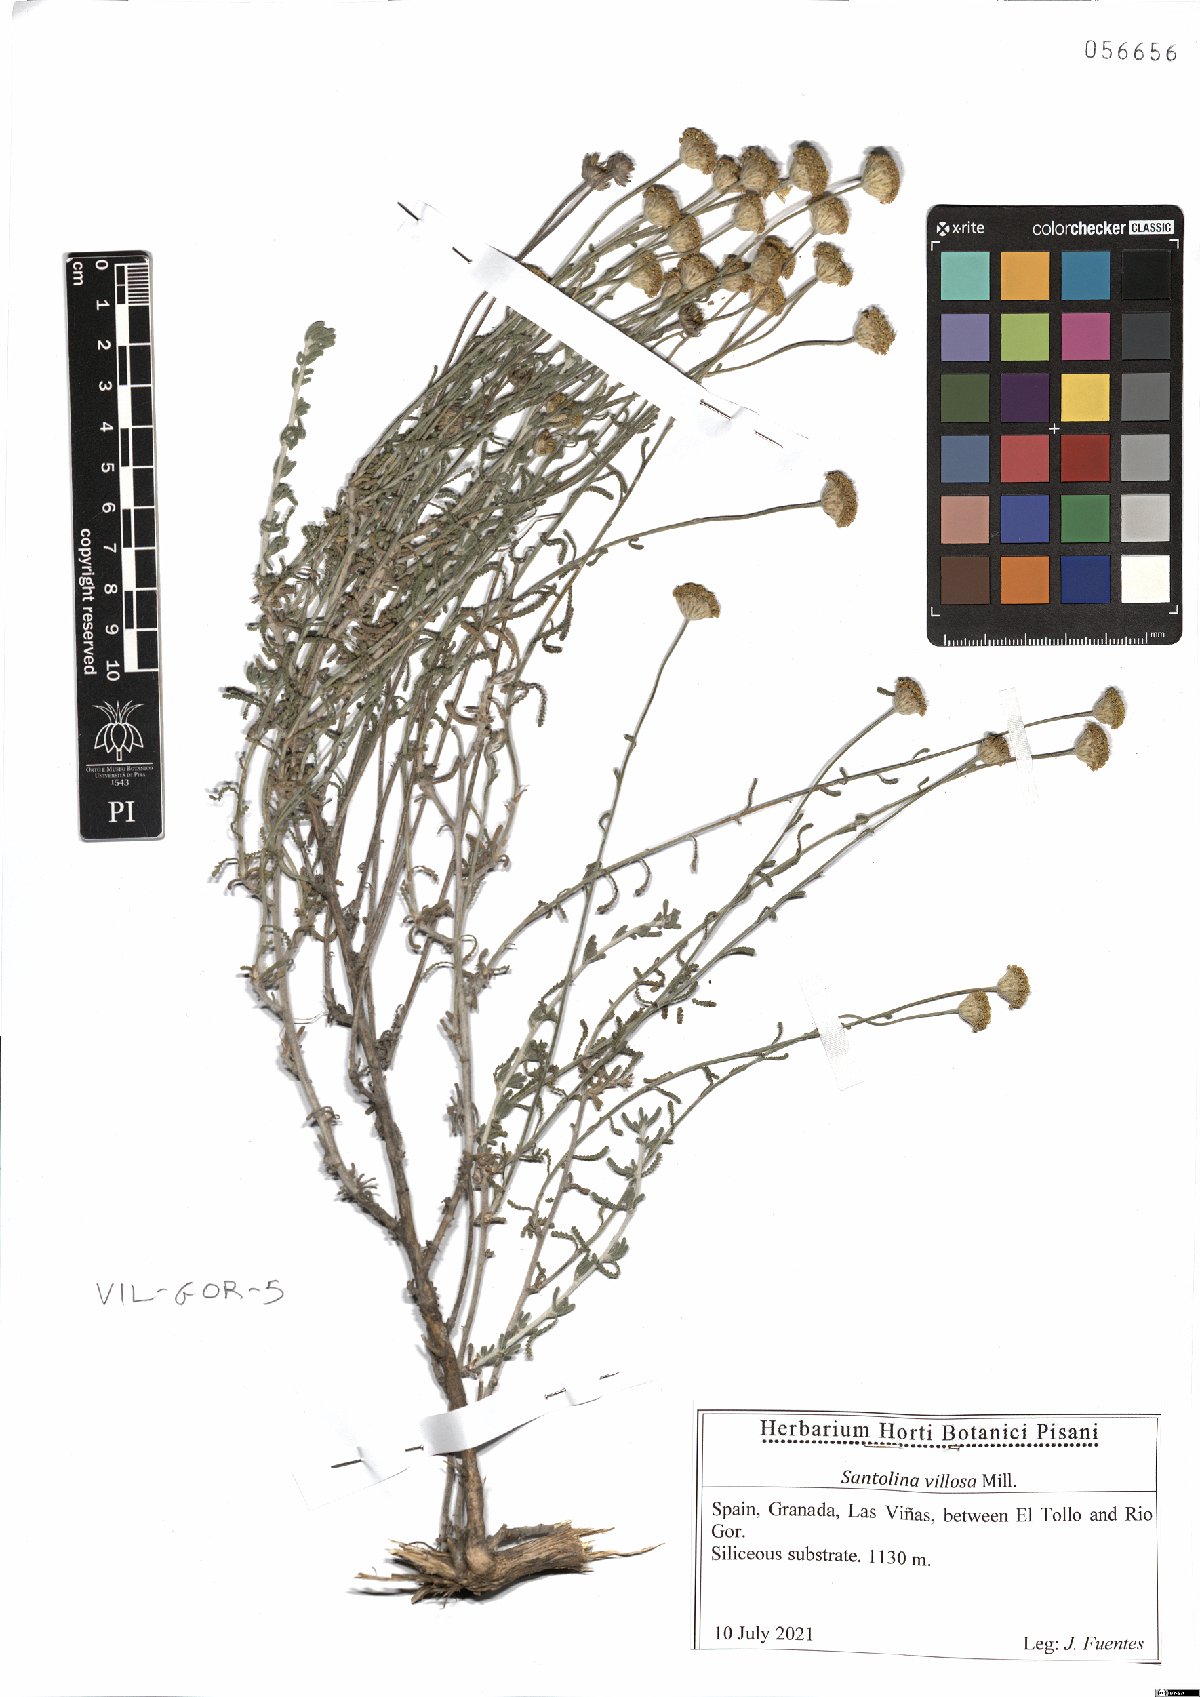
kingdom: Plantae
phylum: Tracheophyta
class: Magnoliopsida
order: Asterales
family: Asteraceae
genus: Santolina
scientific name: Santolina chamaecyparissus
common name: Lavender-cotton
